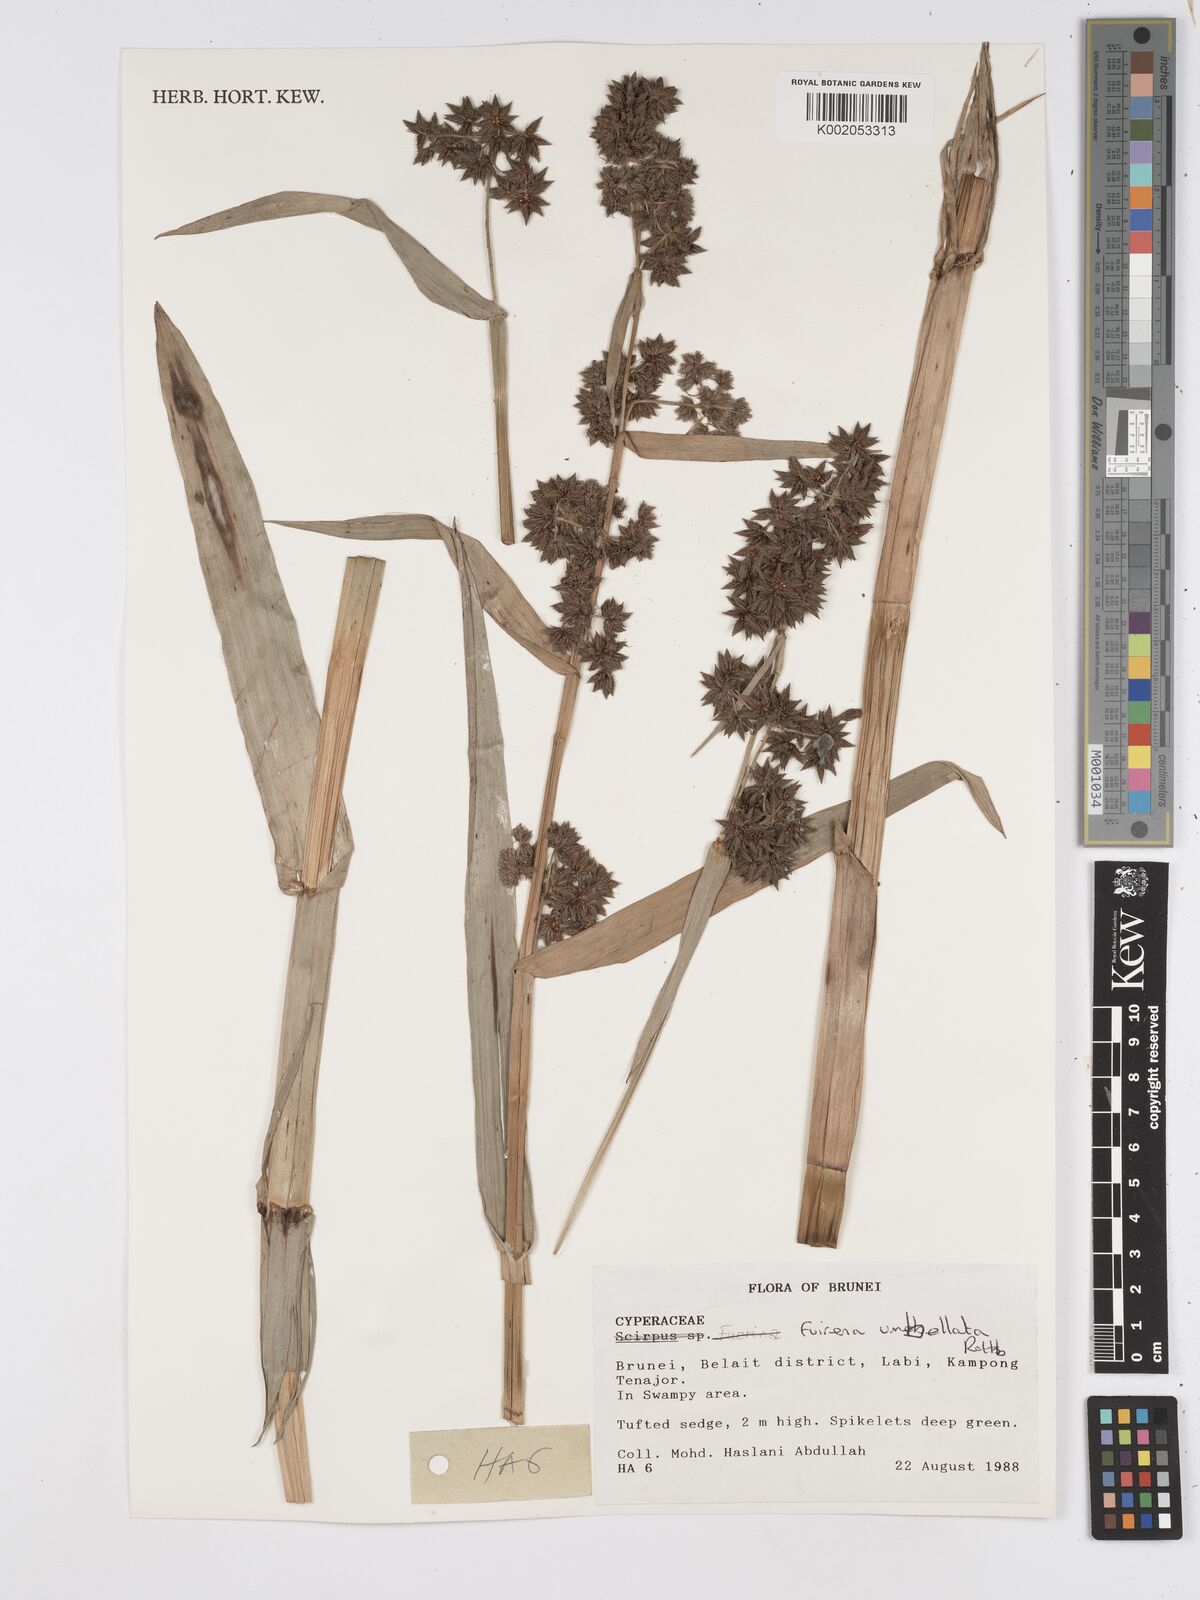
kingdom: Plantae
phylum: Tracheophyta
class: Liliopsida
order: Poales
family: Cyperaceae
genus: Fuirena
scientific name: Fuirena umbellata
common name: Yefen
